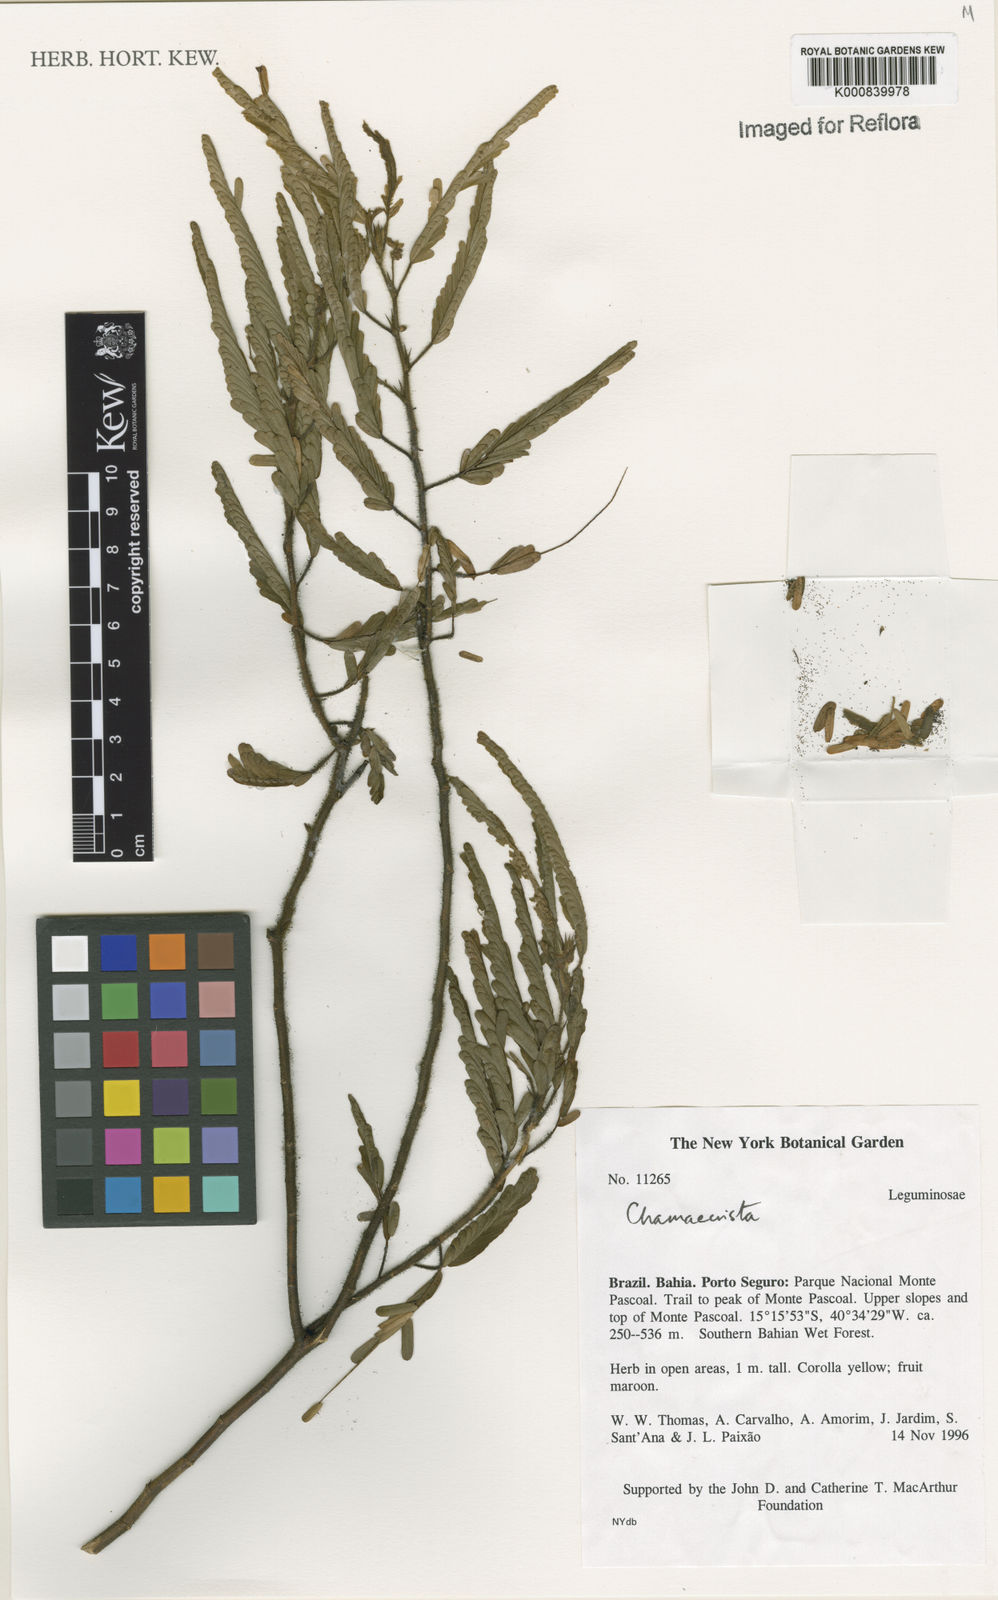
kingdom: Plantae
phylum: Tracheophyta
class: Magnoliopsida
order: Fabales
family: Fabaceae
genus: Chamaecrista
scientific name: Chamaecrista
